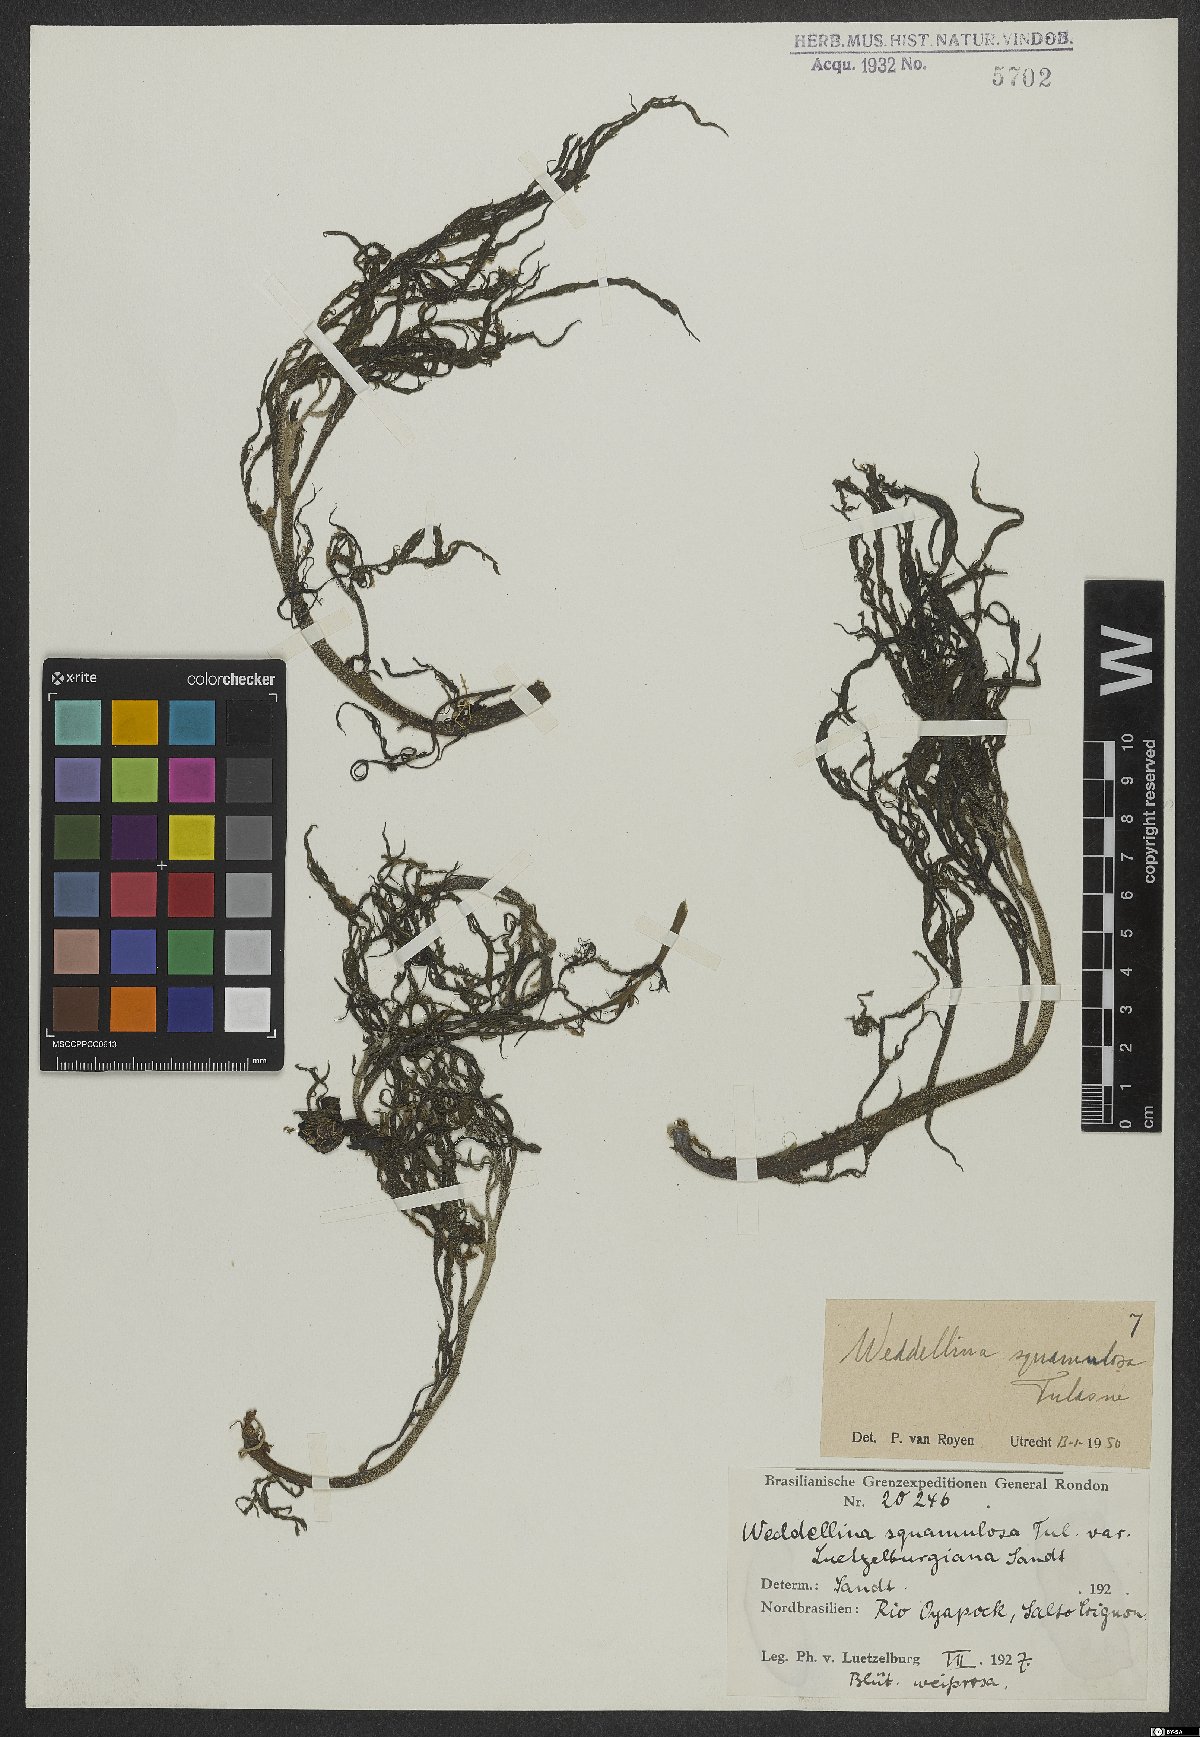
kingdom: Plantae
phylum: Tracheophyta
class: Magnoliopsida
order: Malpighiales
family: Podostemaceae
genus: Weddellina
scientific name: Weddellina squamulosa
